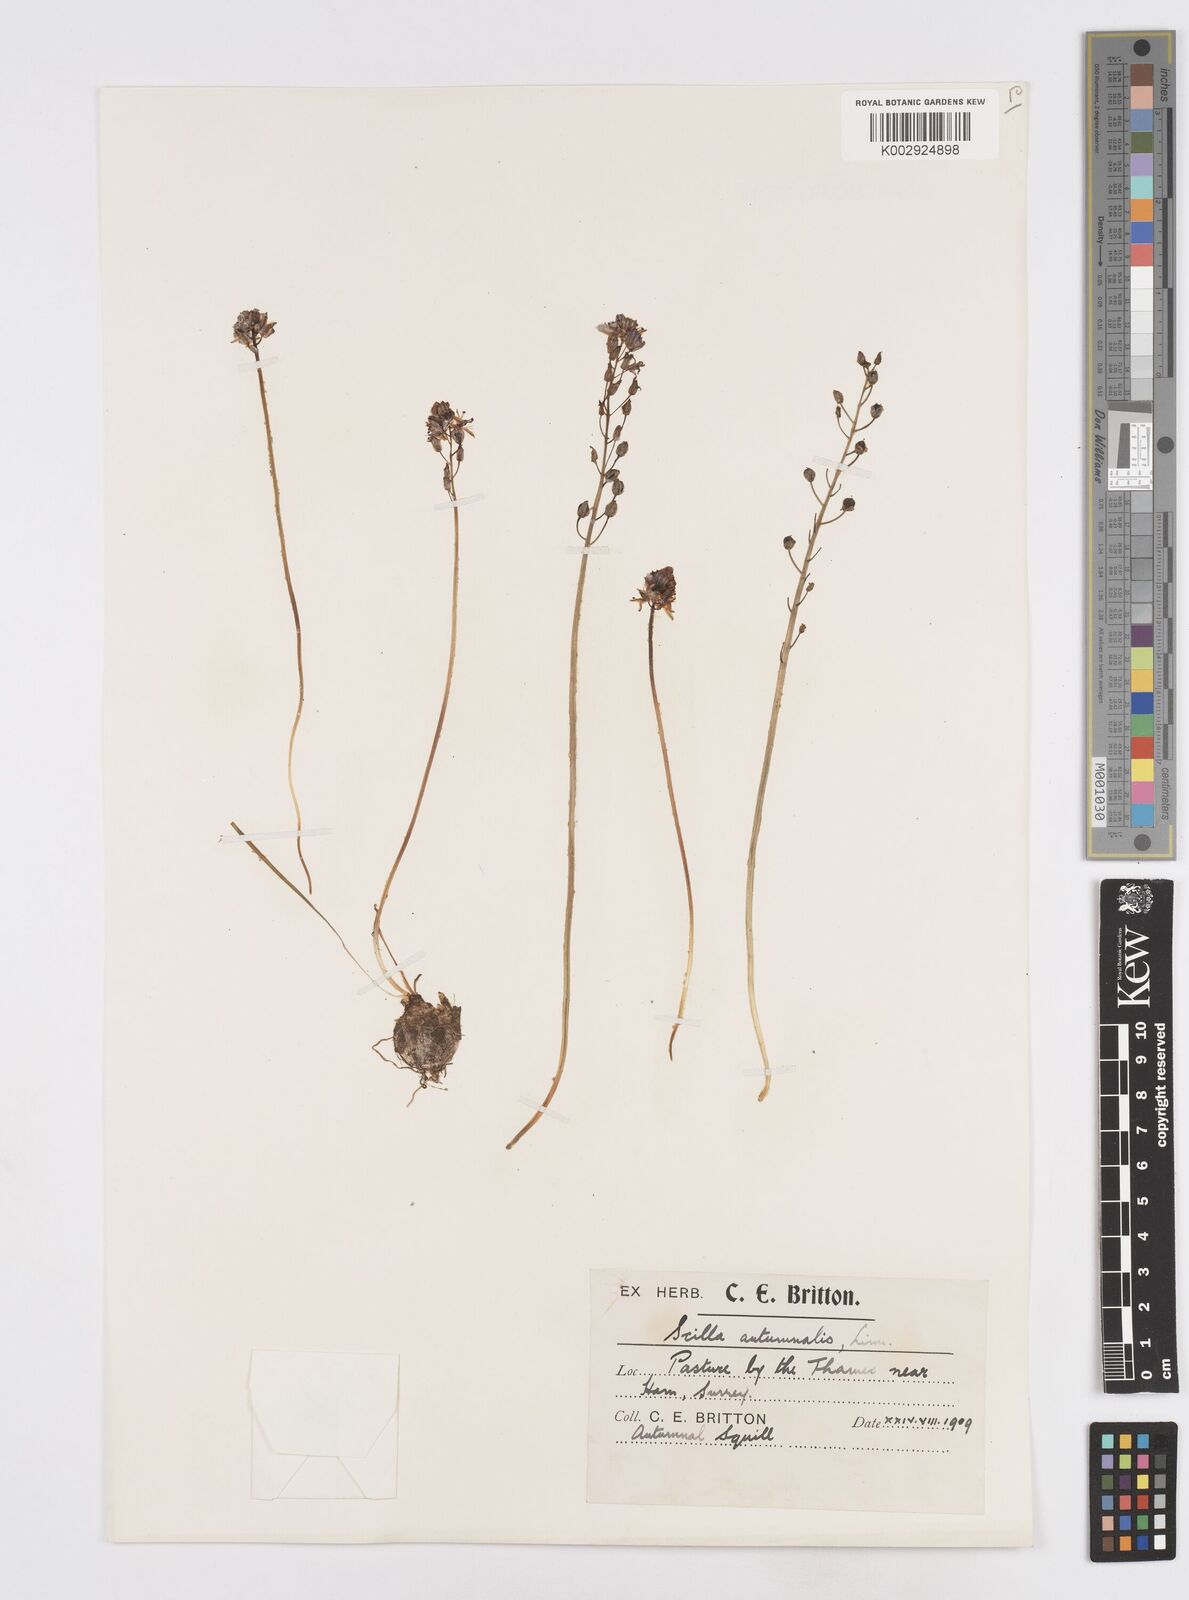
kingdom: Plantae
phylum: Tracheophyta
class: Liliopsida
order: Asparagales
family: Asparagaceae
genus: Prospero
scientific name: Prospero autumnale
